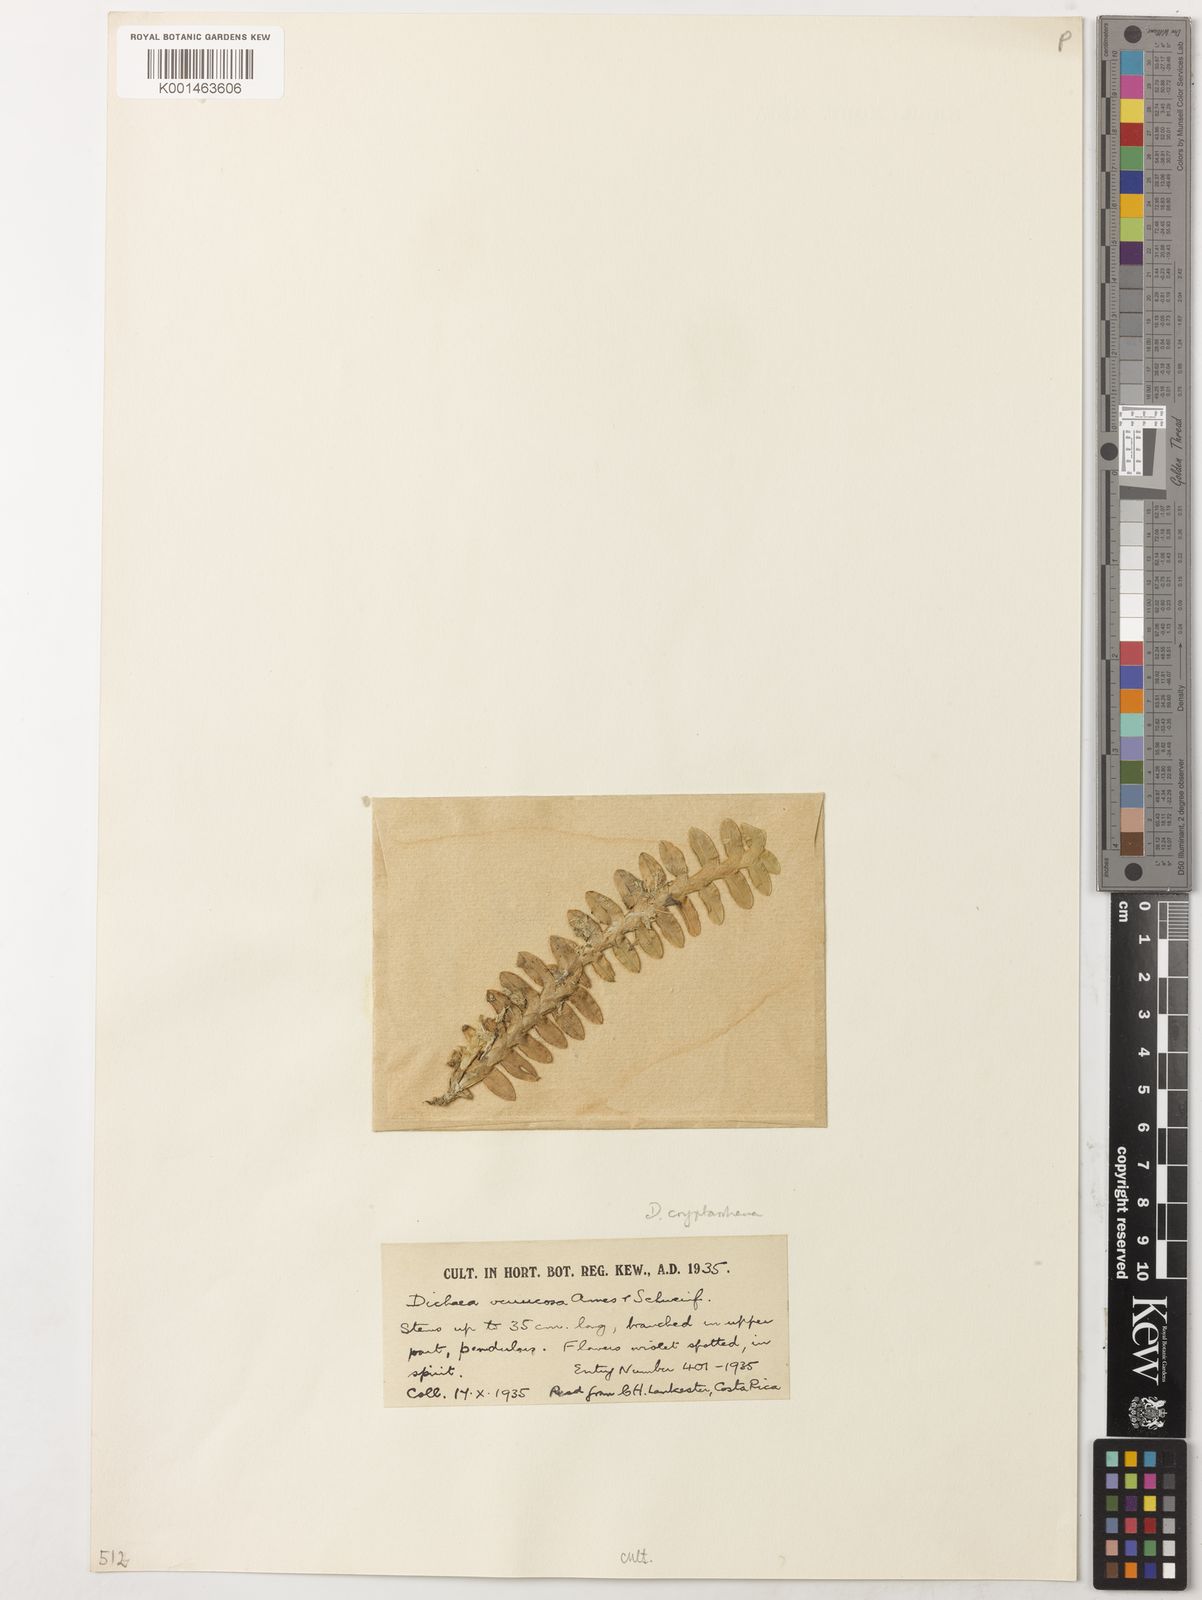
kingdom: Plantae
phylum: Tracheophyta
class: Liliopsida
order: Asparagales
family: Orchidaceae
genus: Dichaea
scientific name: Dichaea morrisii
